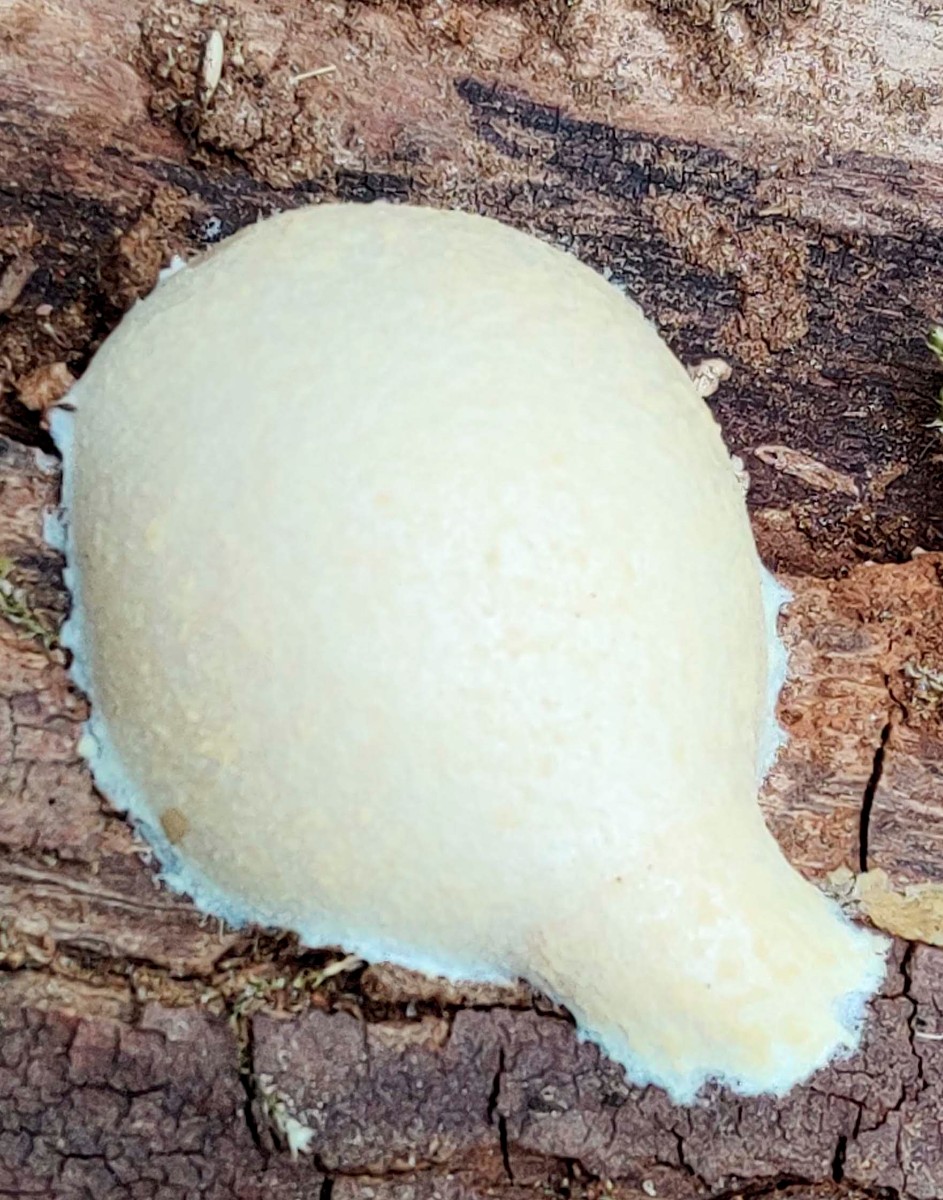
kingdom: Protozoa
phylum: Mycetozoa
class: Myxomycetes
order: Cribrariales
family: Tubiferaceae
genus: Reticularia
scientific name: Reticularia lycoperdon
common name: skinnende støvpude
